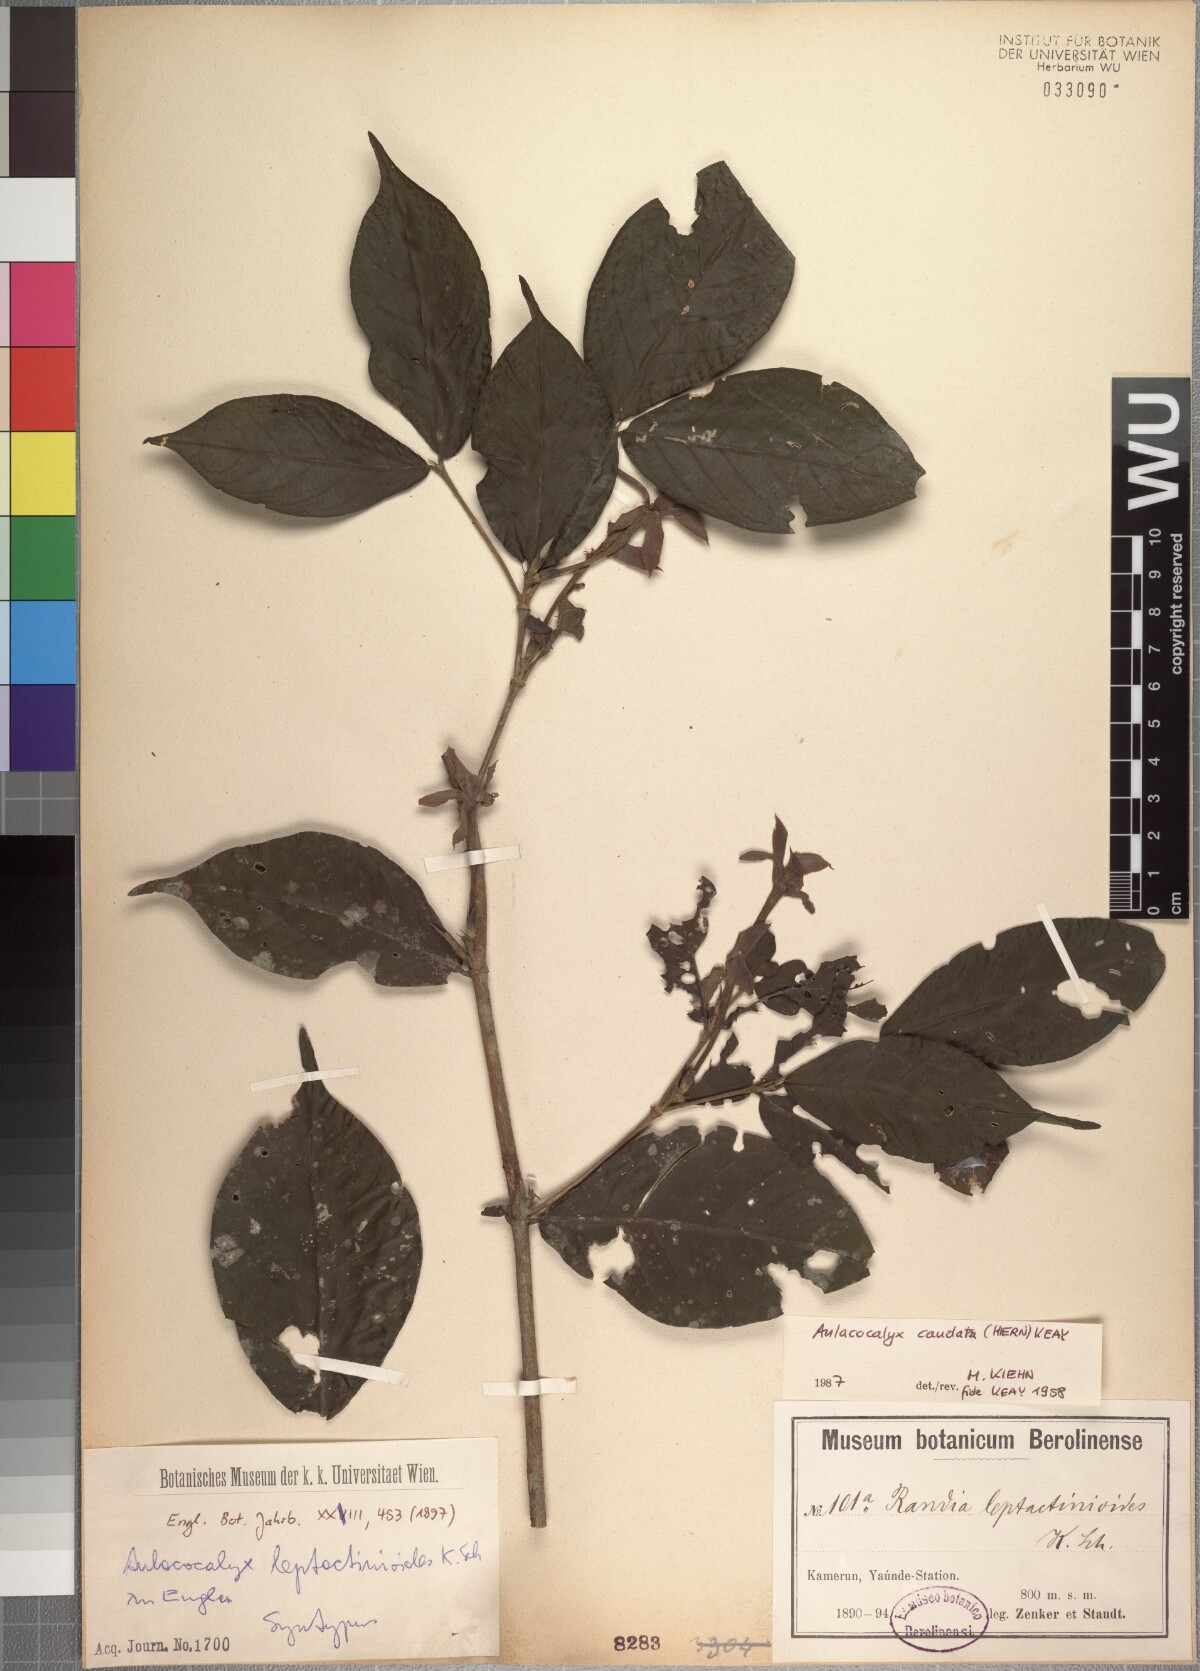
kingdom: Plantae
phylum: Tracheophyta
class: Magnoliopsida
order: Gentianales
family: Rubiaceae
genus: Aulacocalyx
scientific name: Aulacocalyx leptactinioides
